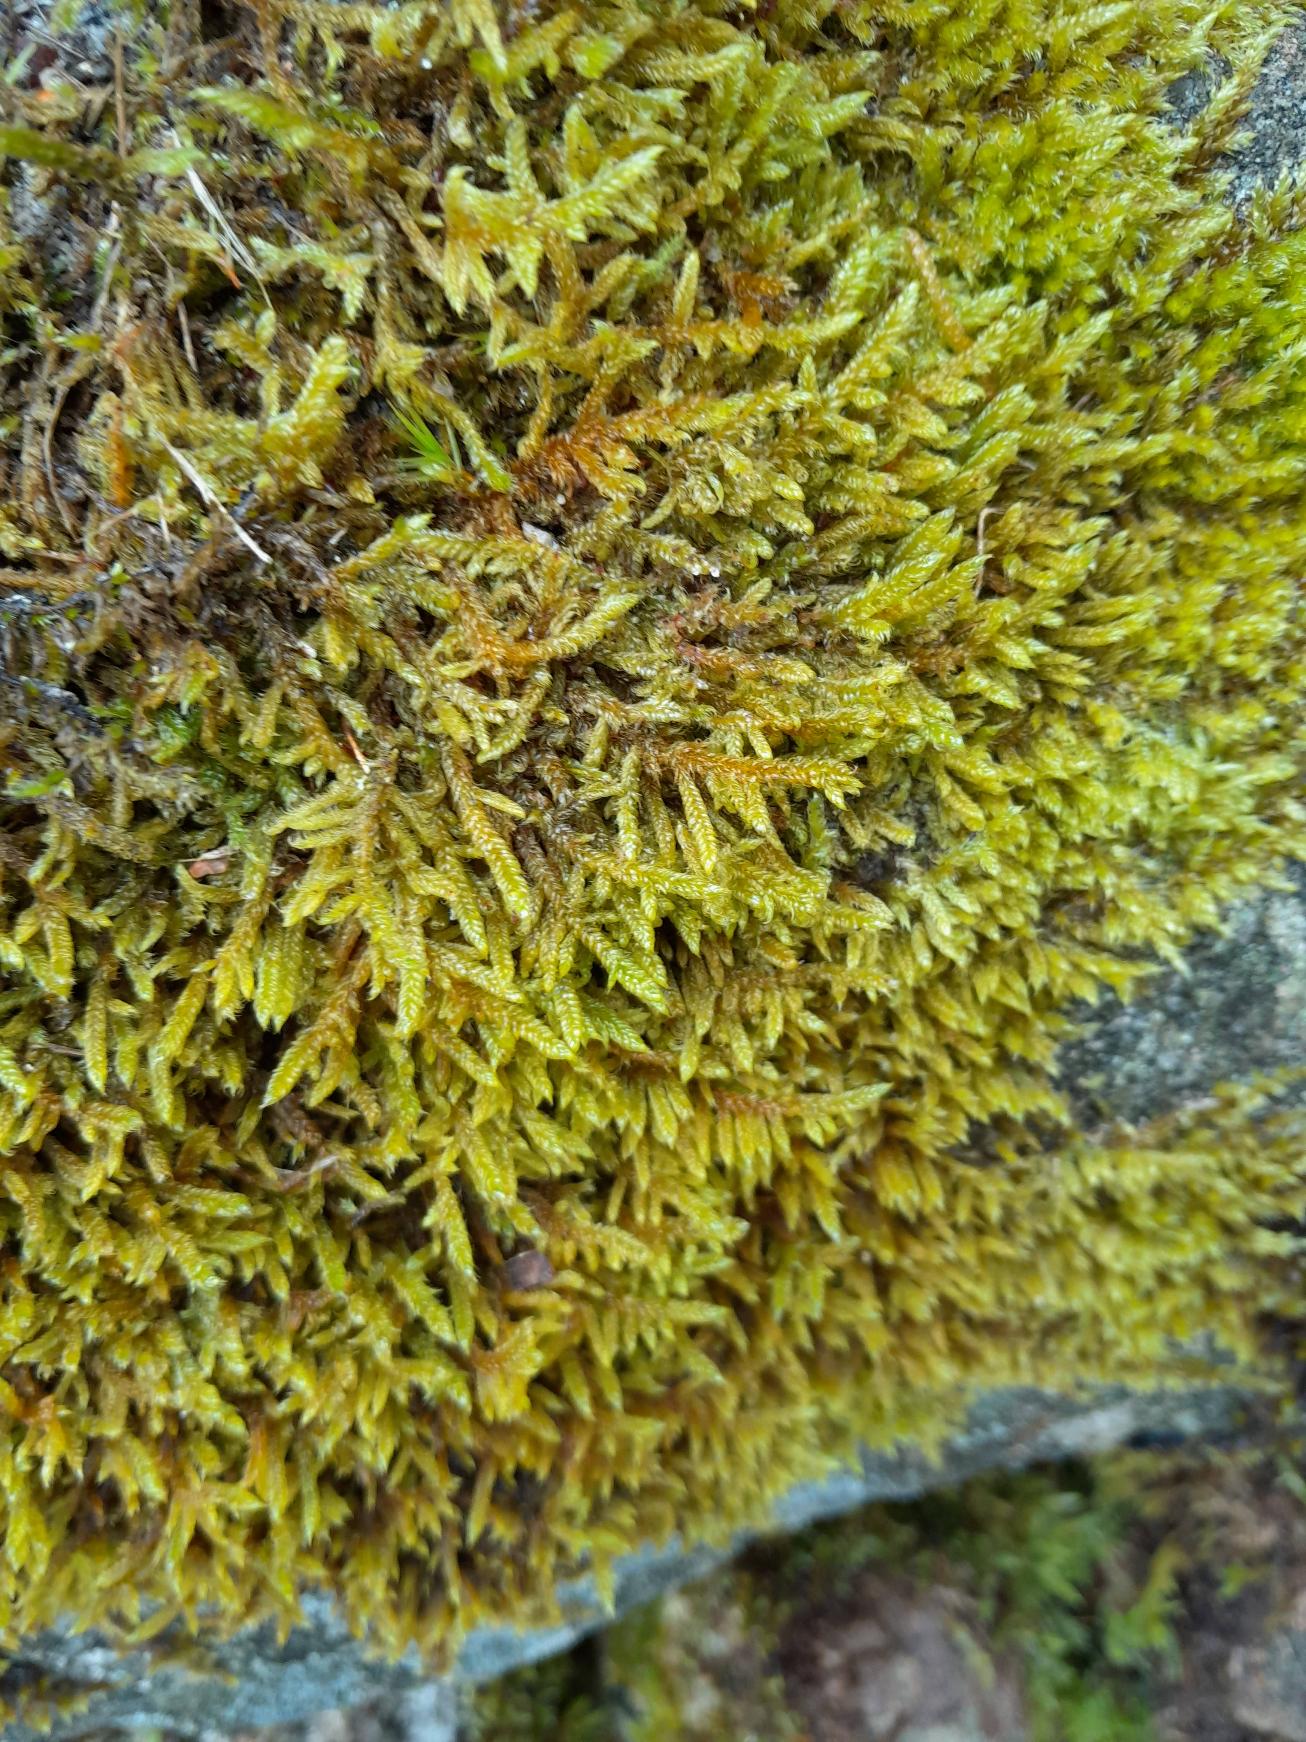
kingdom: Plantae
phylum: Bryophyta
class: Bryopsida
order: Hypnales
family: Hypnaceae
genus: Hypnum
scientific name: Hypnum cupressiforme
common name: Almindelig cypresmos
